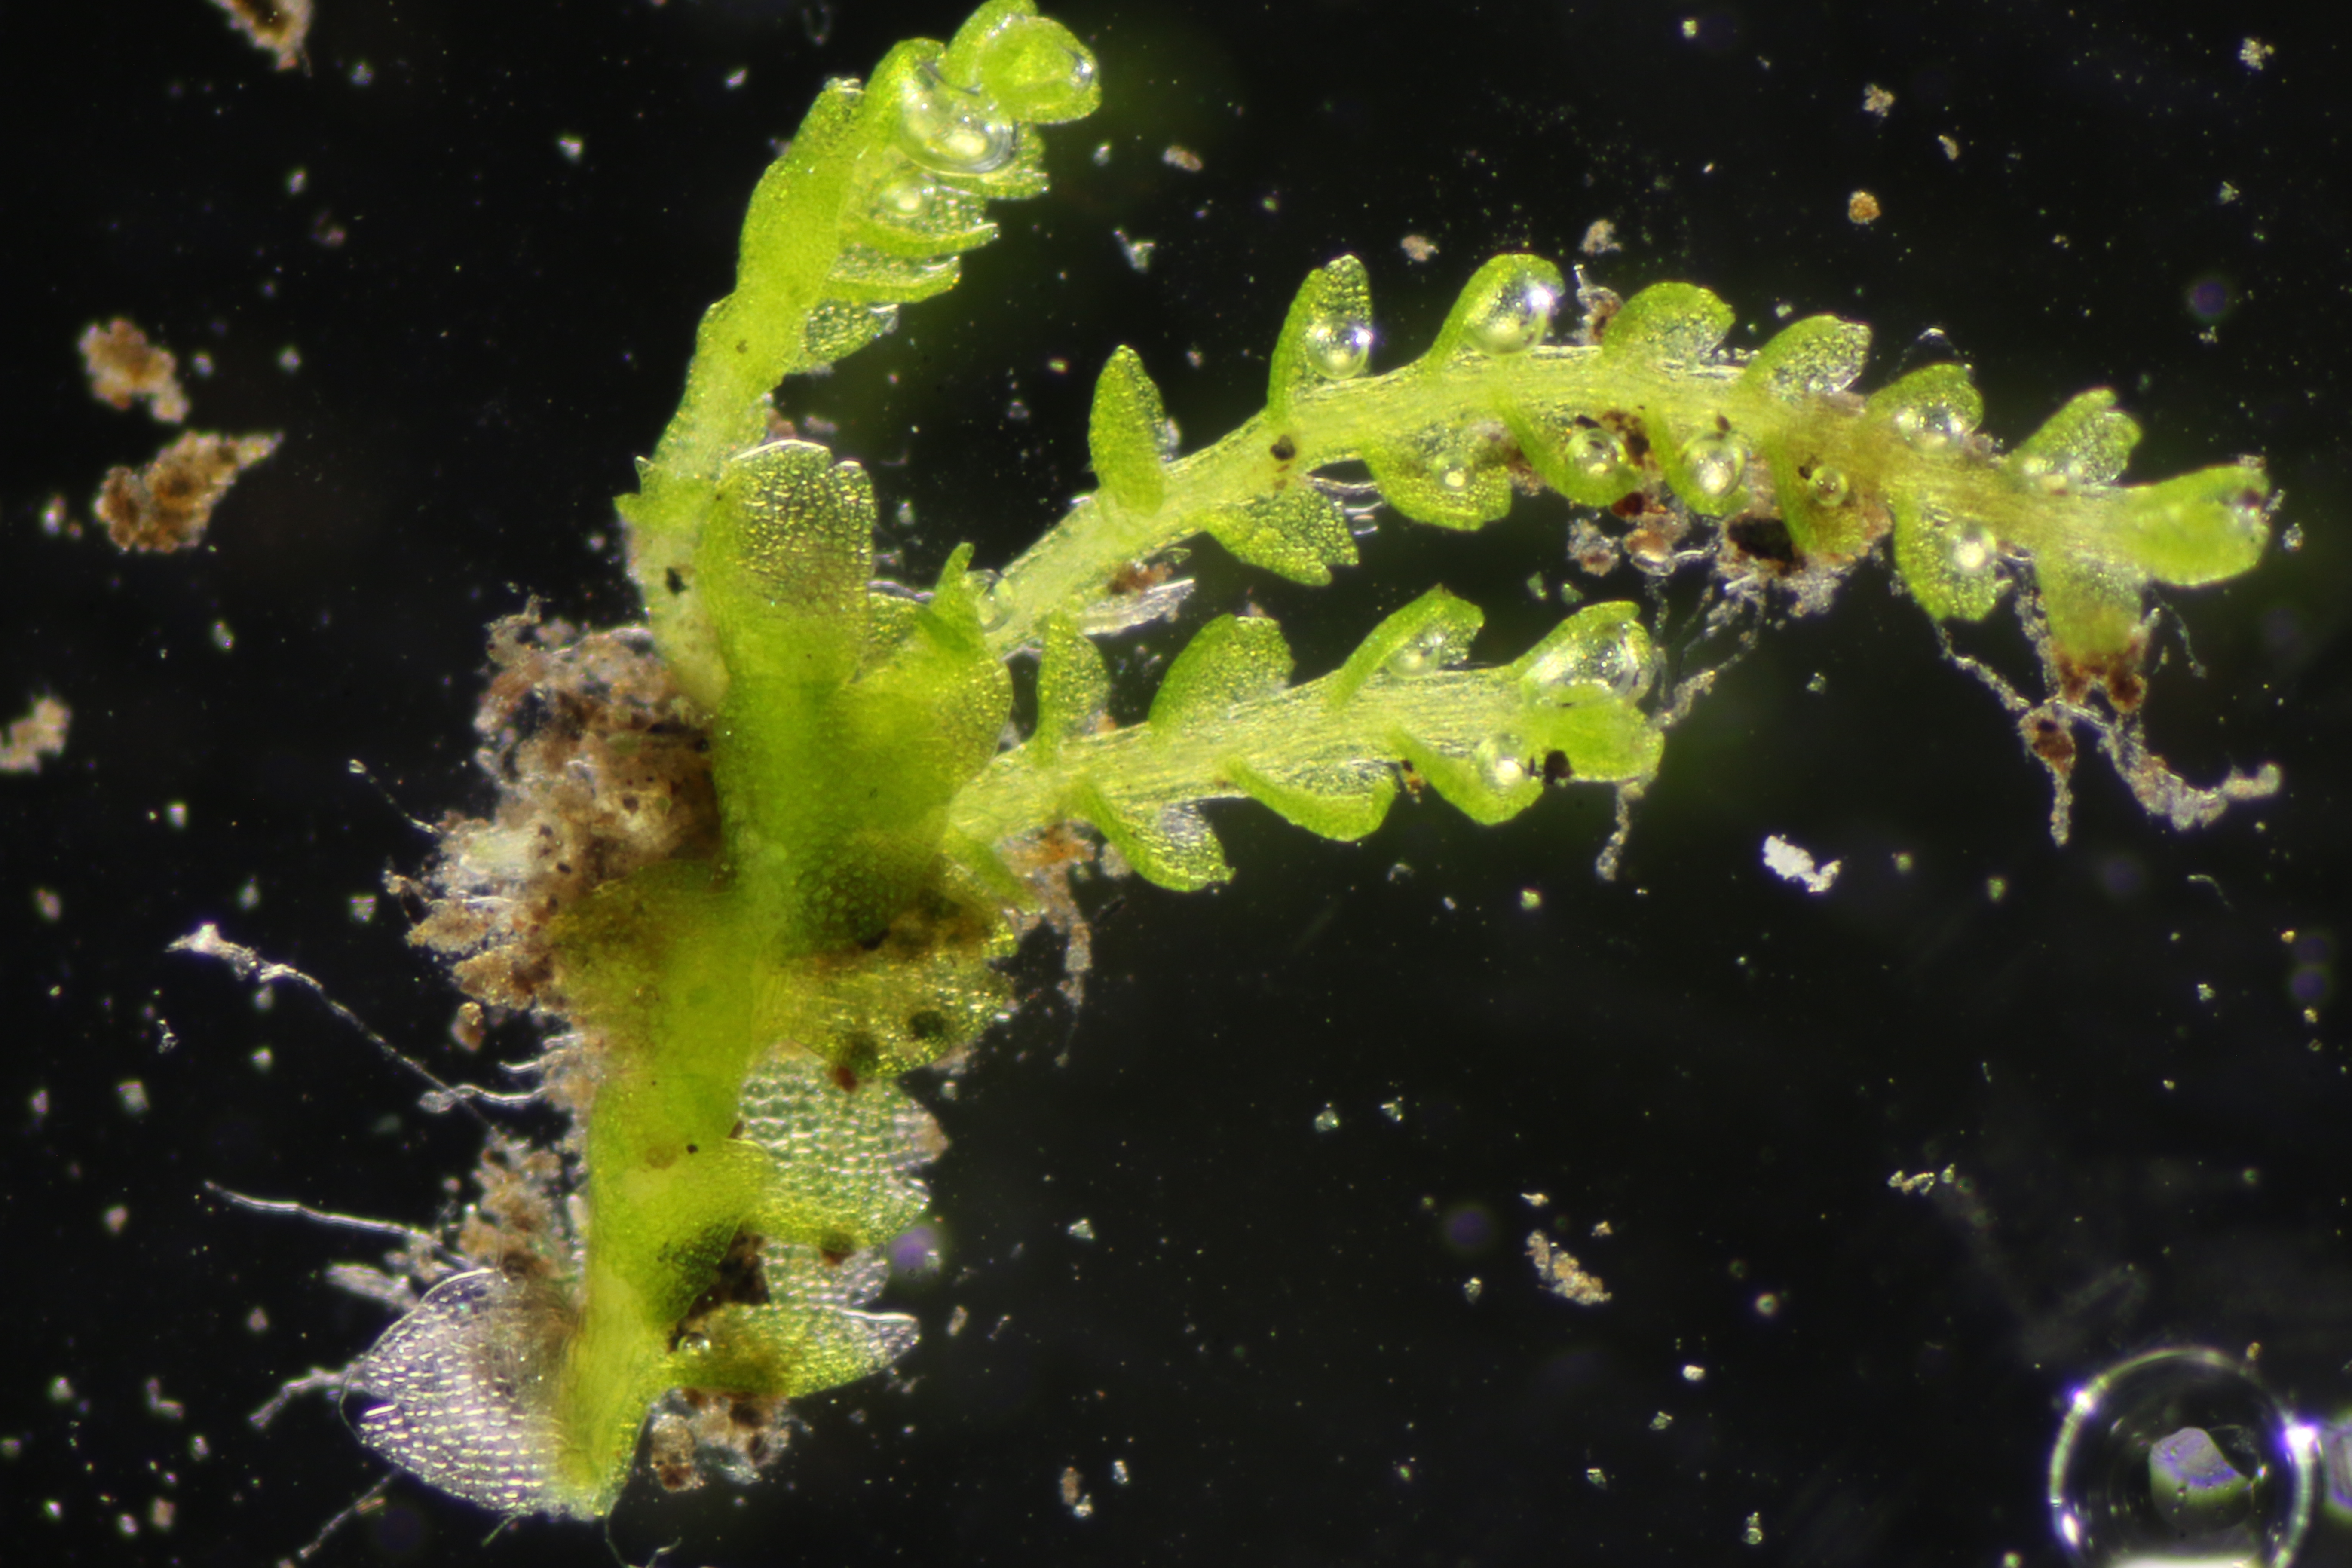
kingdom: Plantae
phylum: Marchantiophyta
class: Jungermanniopsida
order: Jungermanniales
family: Cephaloziaceae
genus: Odontoschisma
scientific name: Odontoschisma francisci
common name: Sand-vævmos
